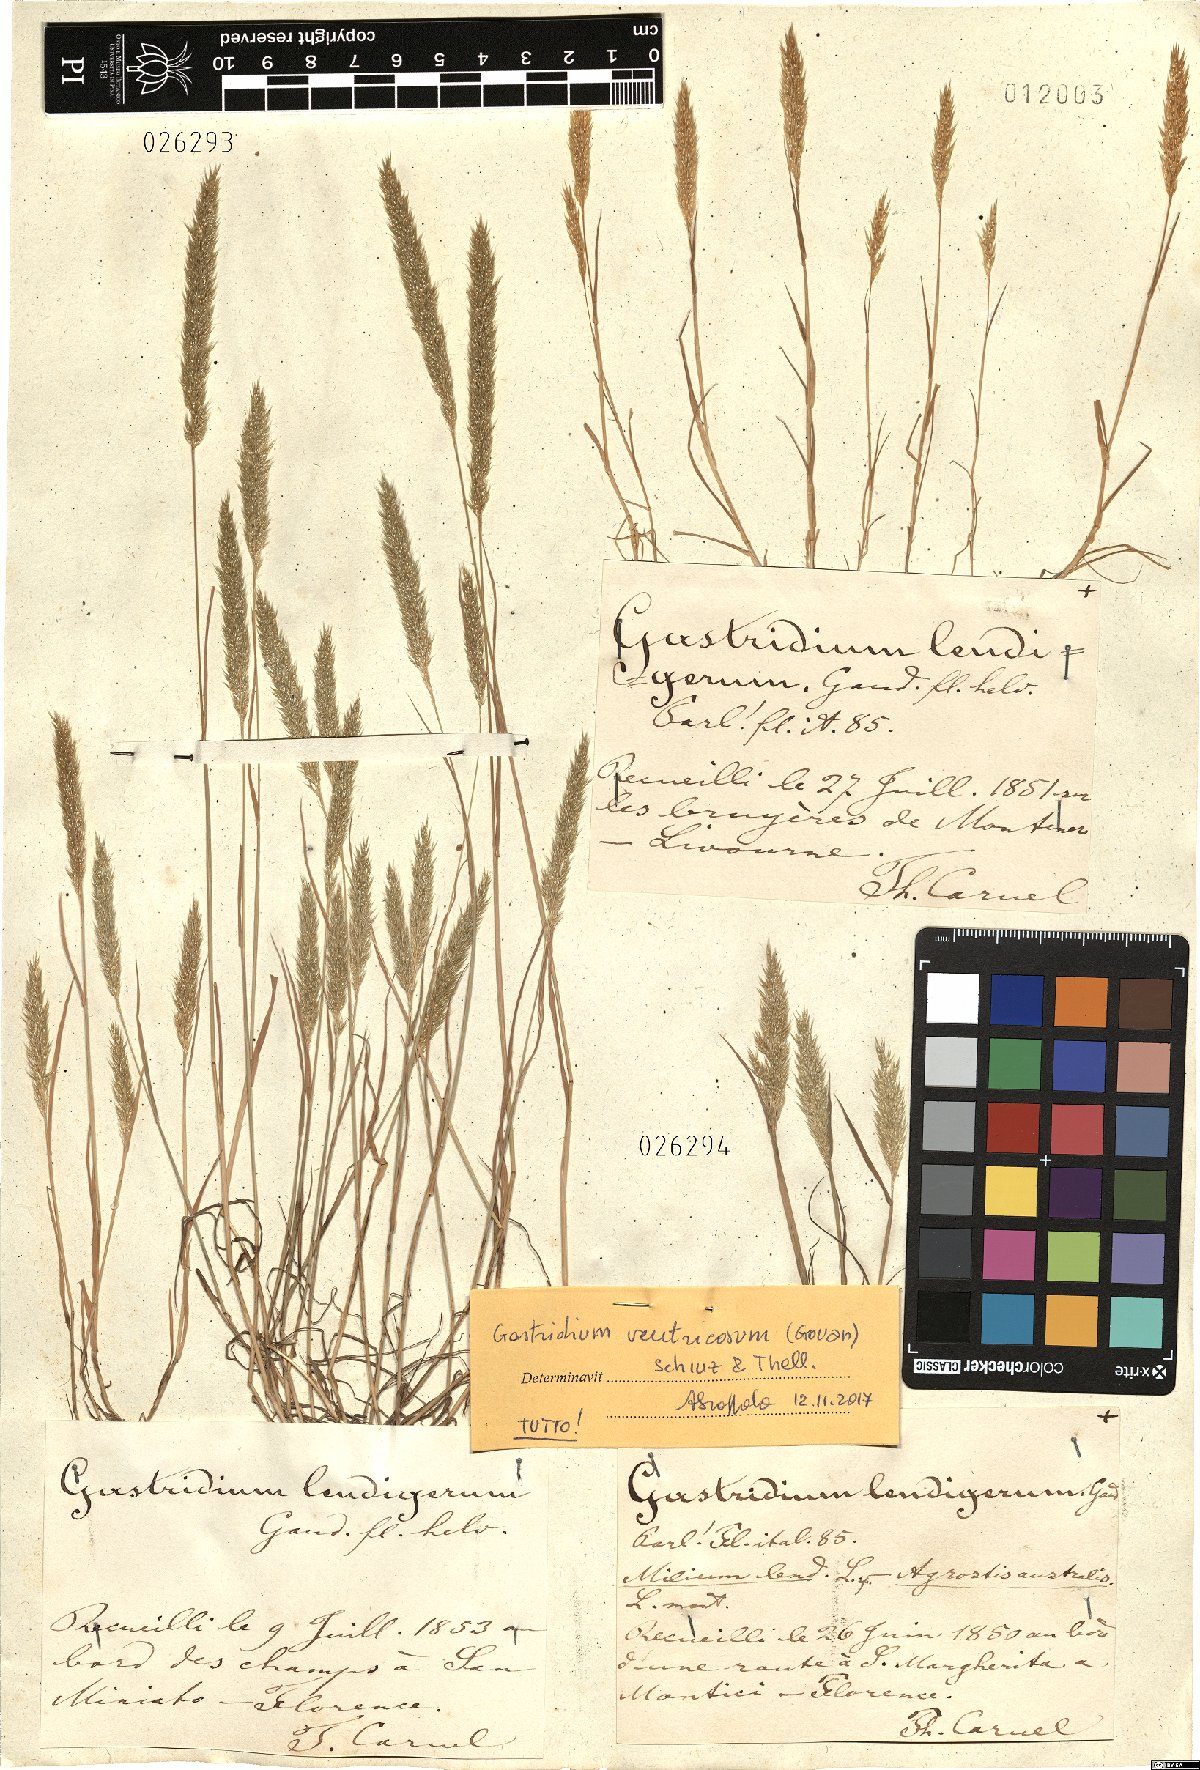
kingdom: Plantae
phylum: Tracheophyta
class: Liliopsida
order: Poales
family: Poaceae
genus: Gastridium
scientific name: Gastridium ventricosum
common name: Nit-grass
